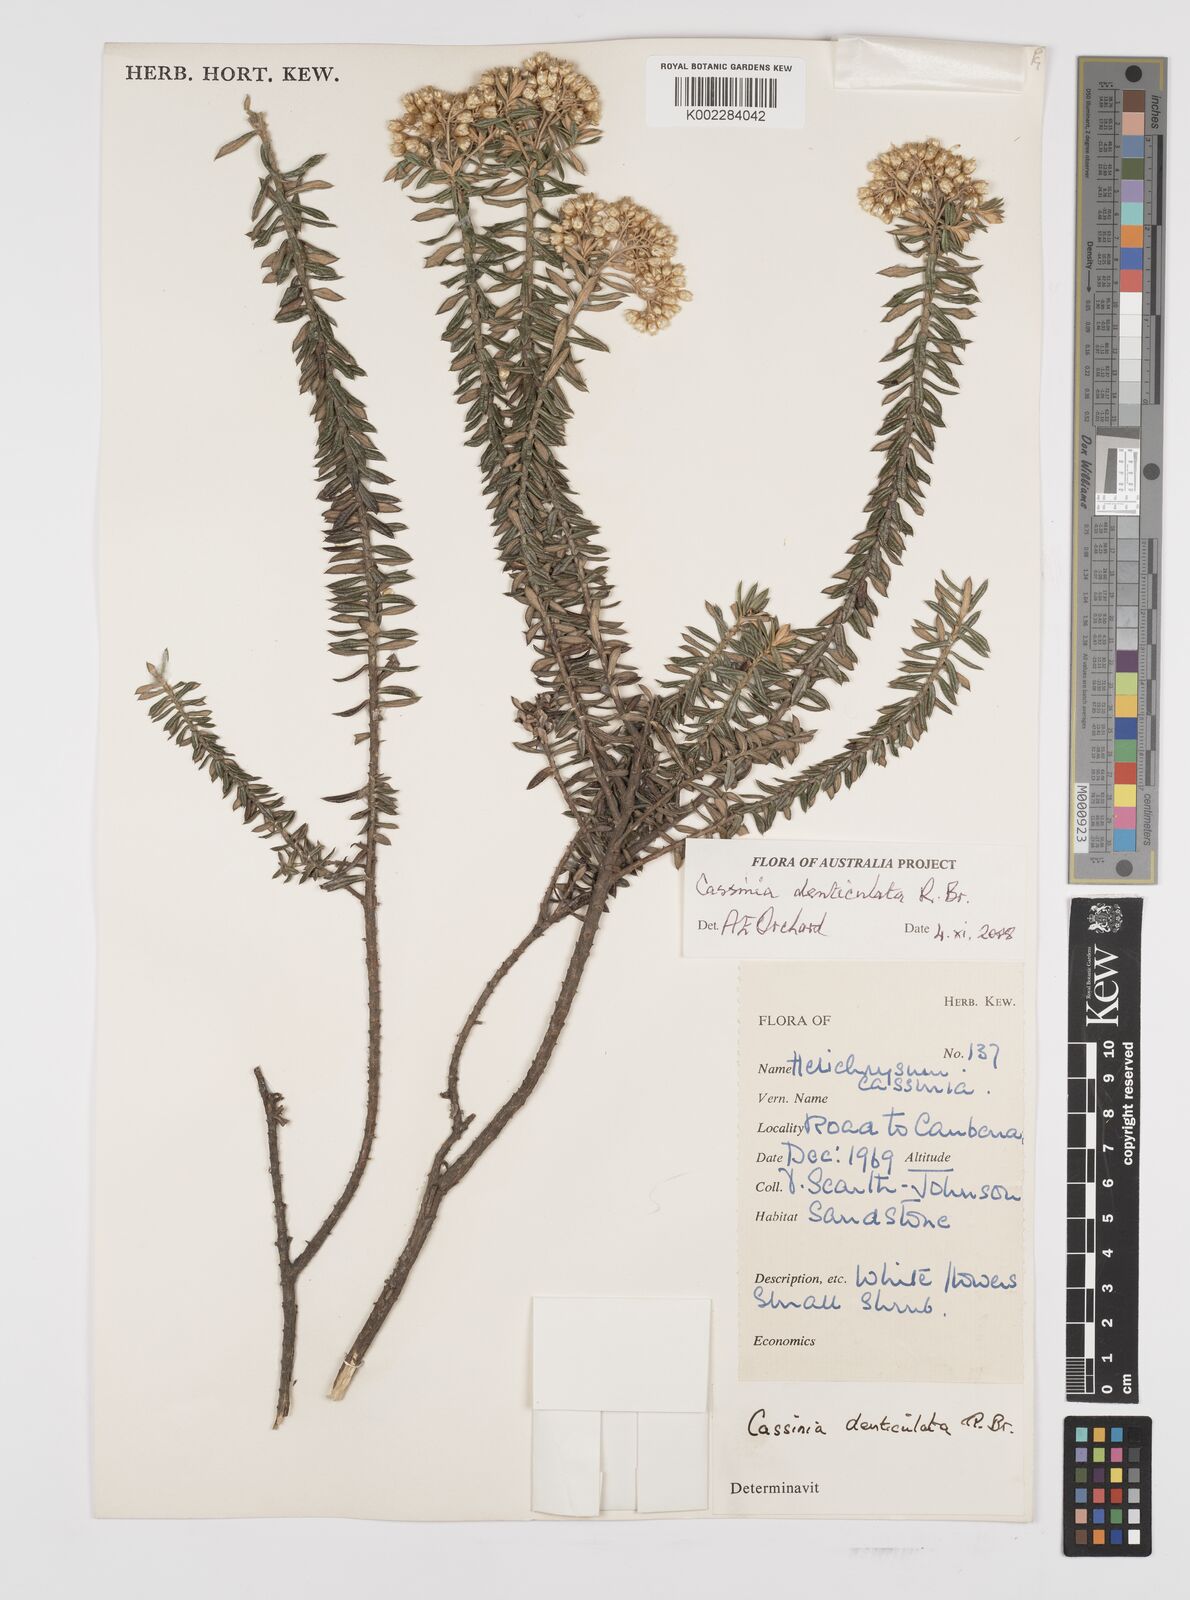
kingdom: Plantae
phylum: Tracheophyta
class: Magnoliopsida
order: Asterales
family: Asteraceae
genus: Cassinia
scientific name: Cassinia denticulata
